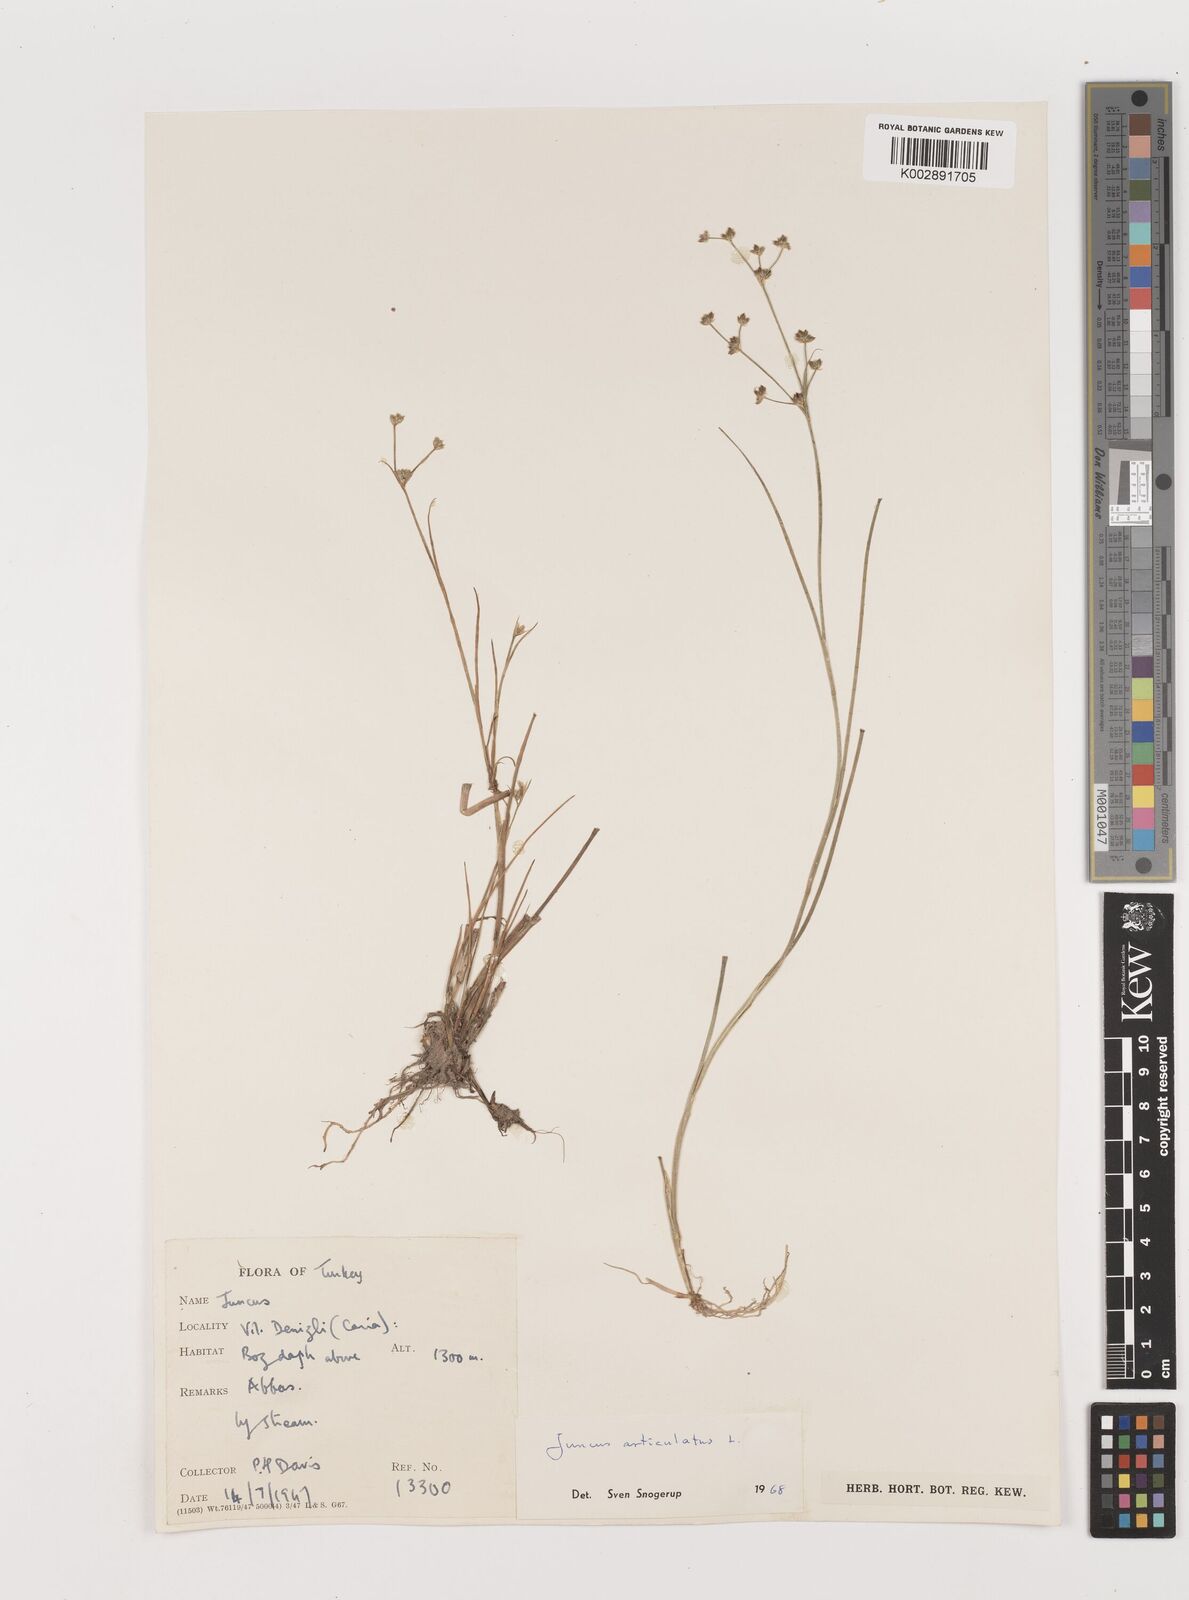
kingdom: Plantae
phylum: Tracheophyta
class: Liliopsida
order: Poales
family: Juncaceae
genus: Juncus
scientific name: Juncus articulatus
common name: Jointed rush
